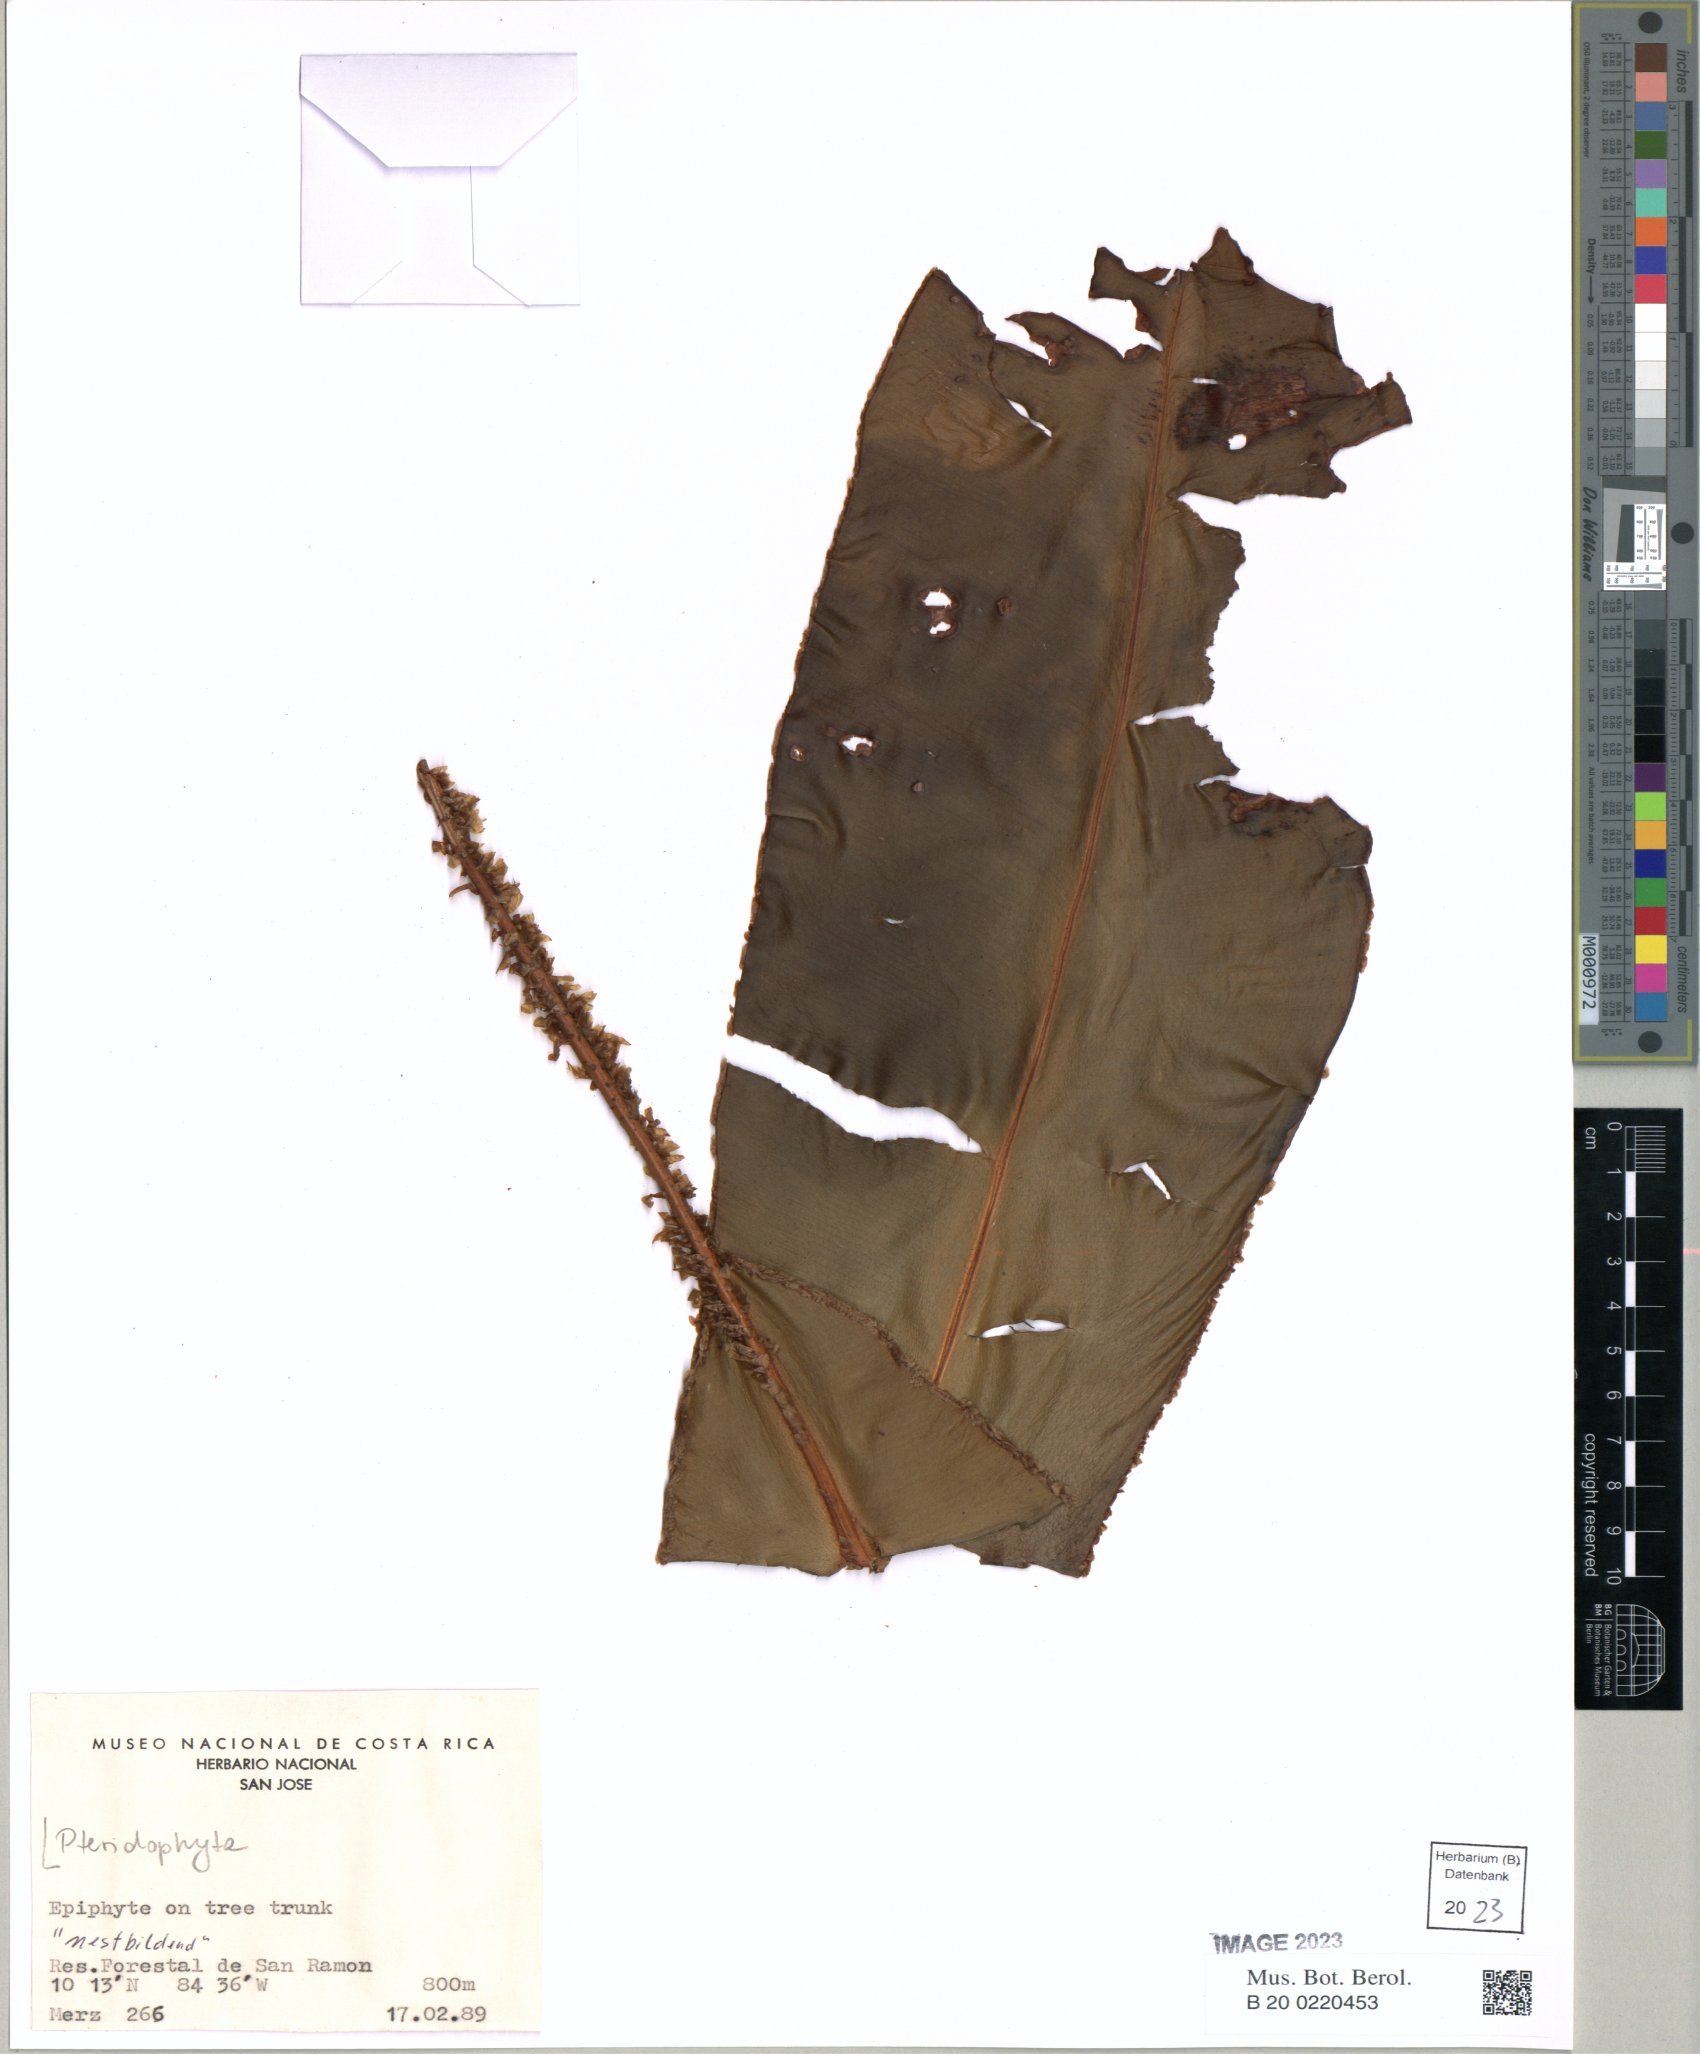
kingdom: Plantae
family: Pteridophyta
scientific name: Pteridophyta
